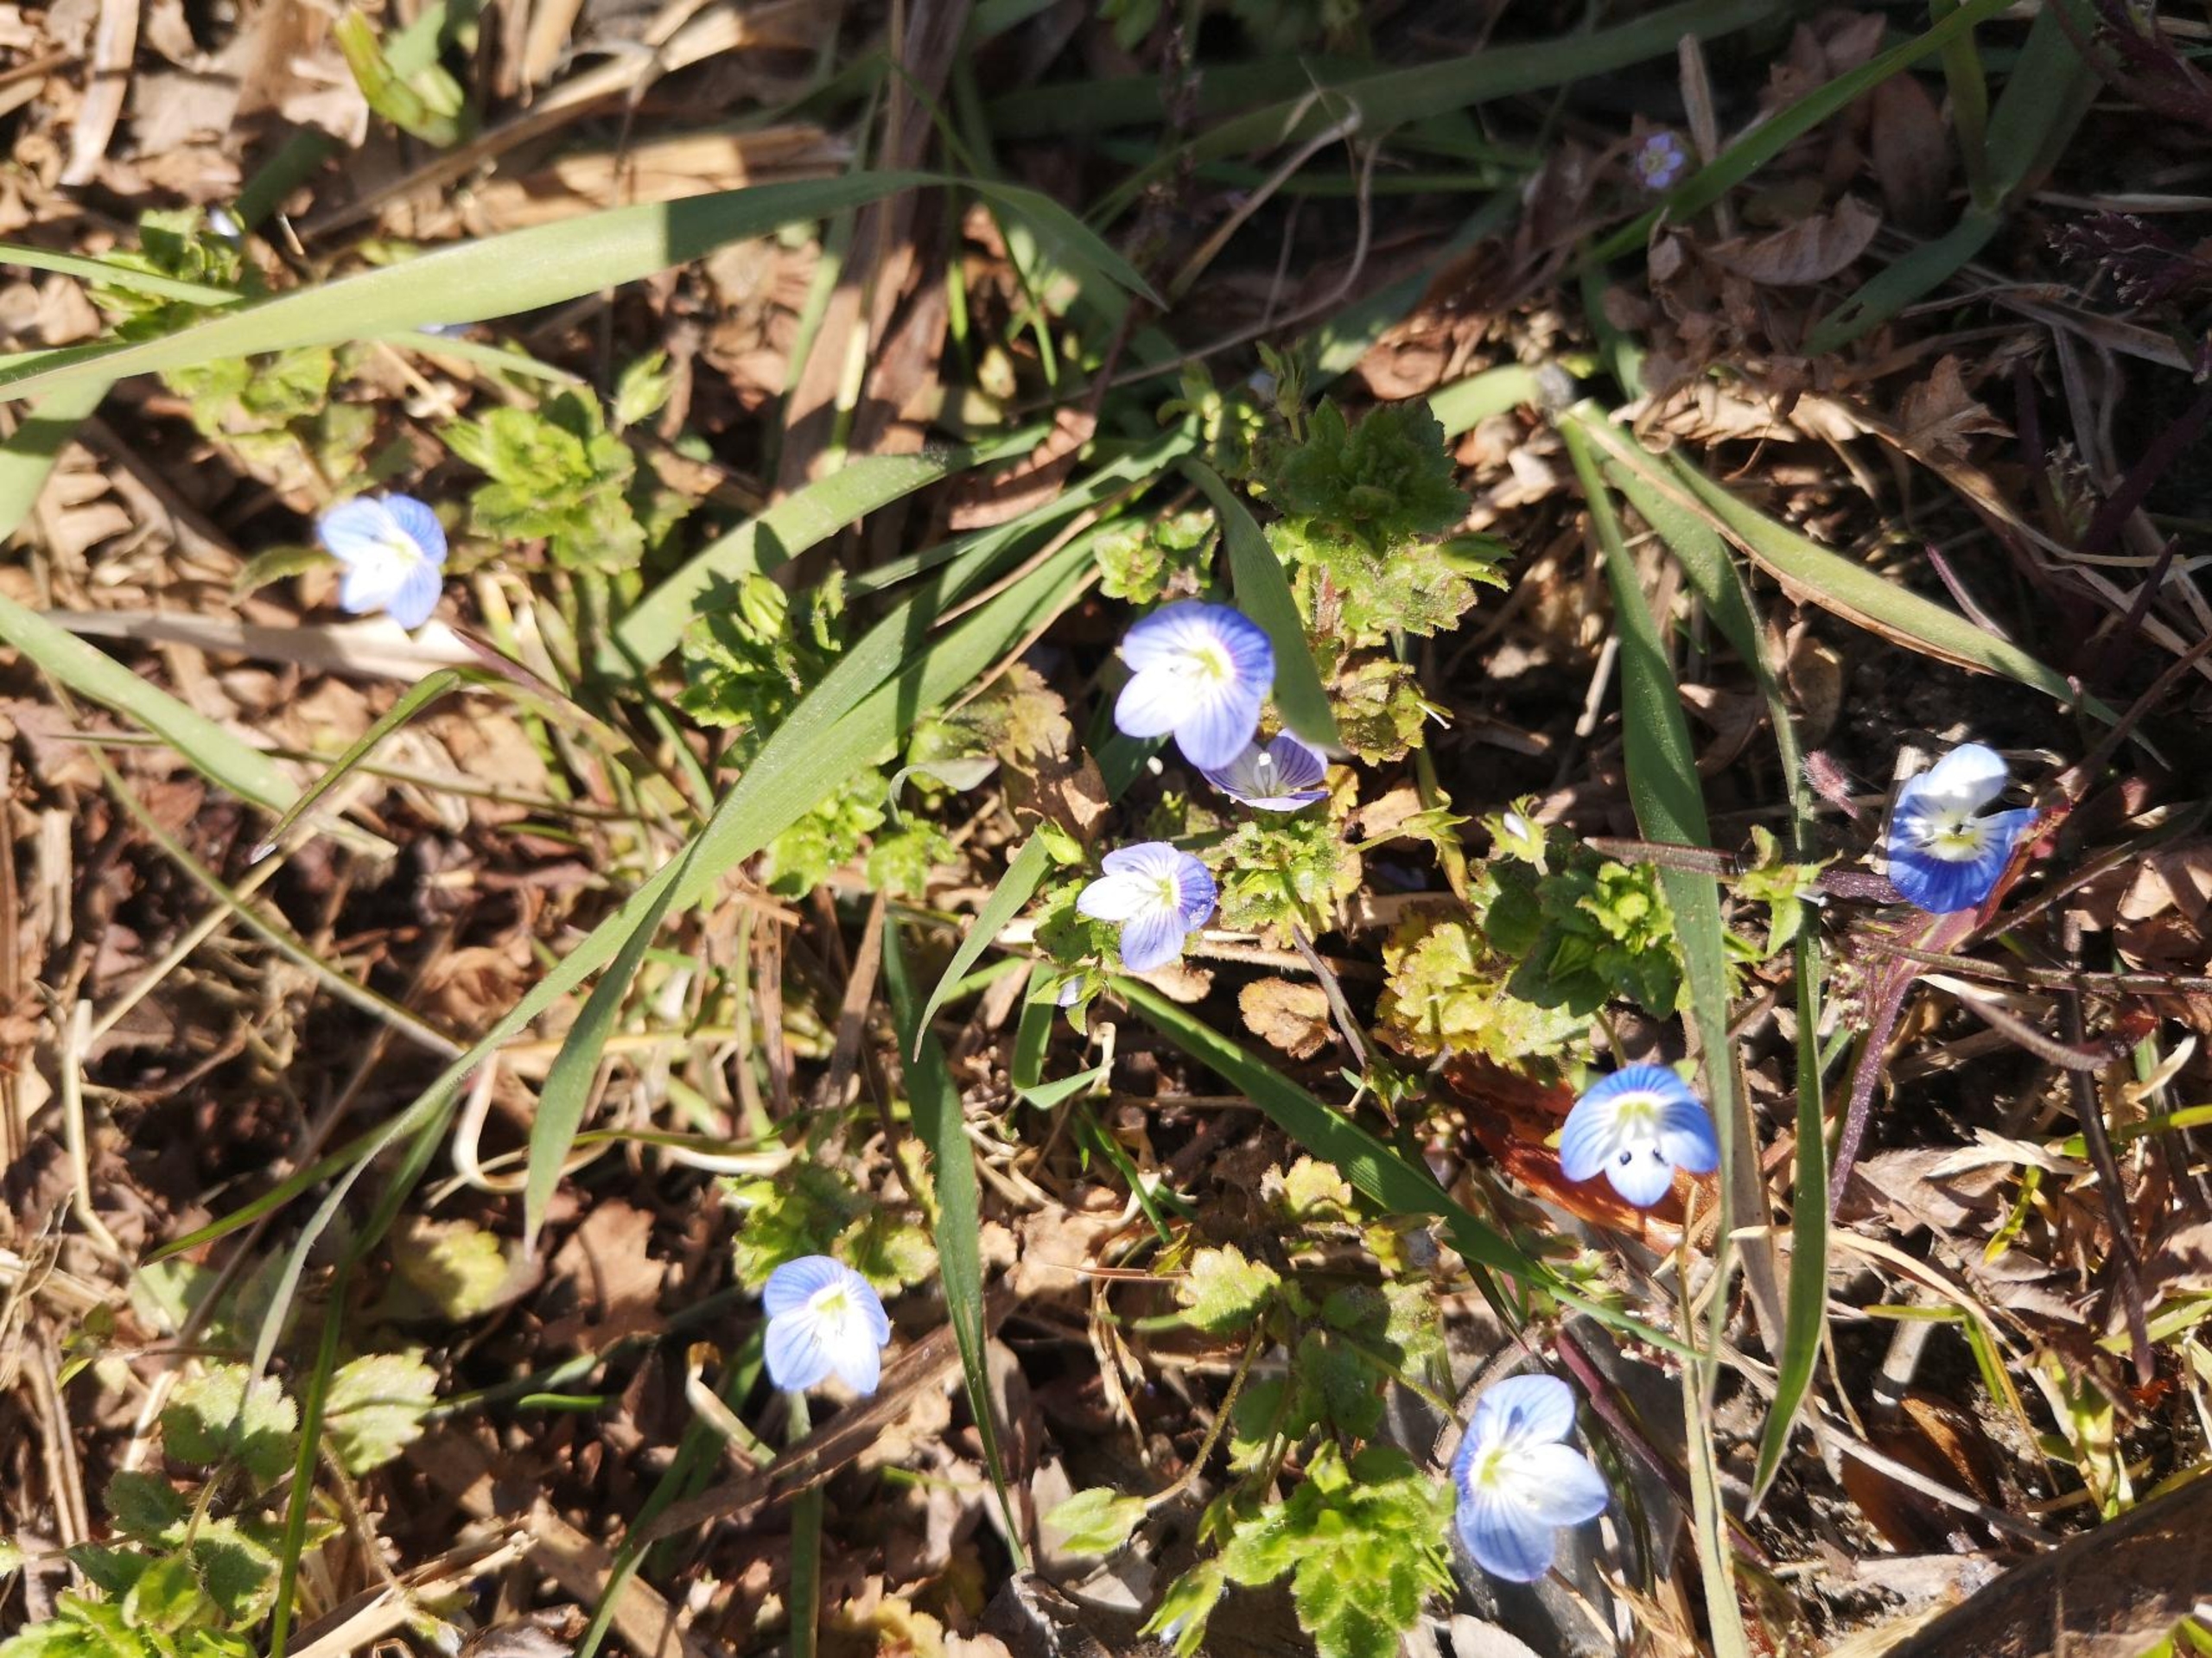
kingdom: Plantae
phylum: Tracheophyta
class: Magnoliopsida
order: Lamiales
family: Plantaginaceae
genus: Veronica
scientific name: Veronica persica
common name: Storkronet ærenpris
